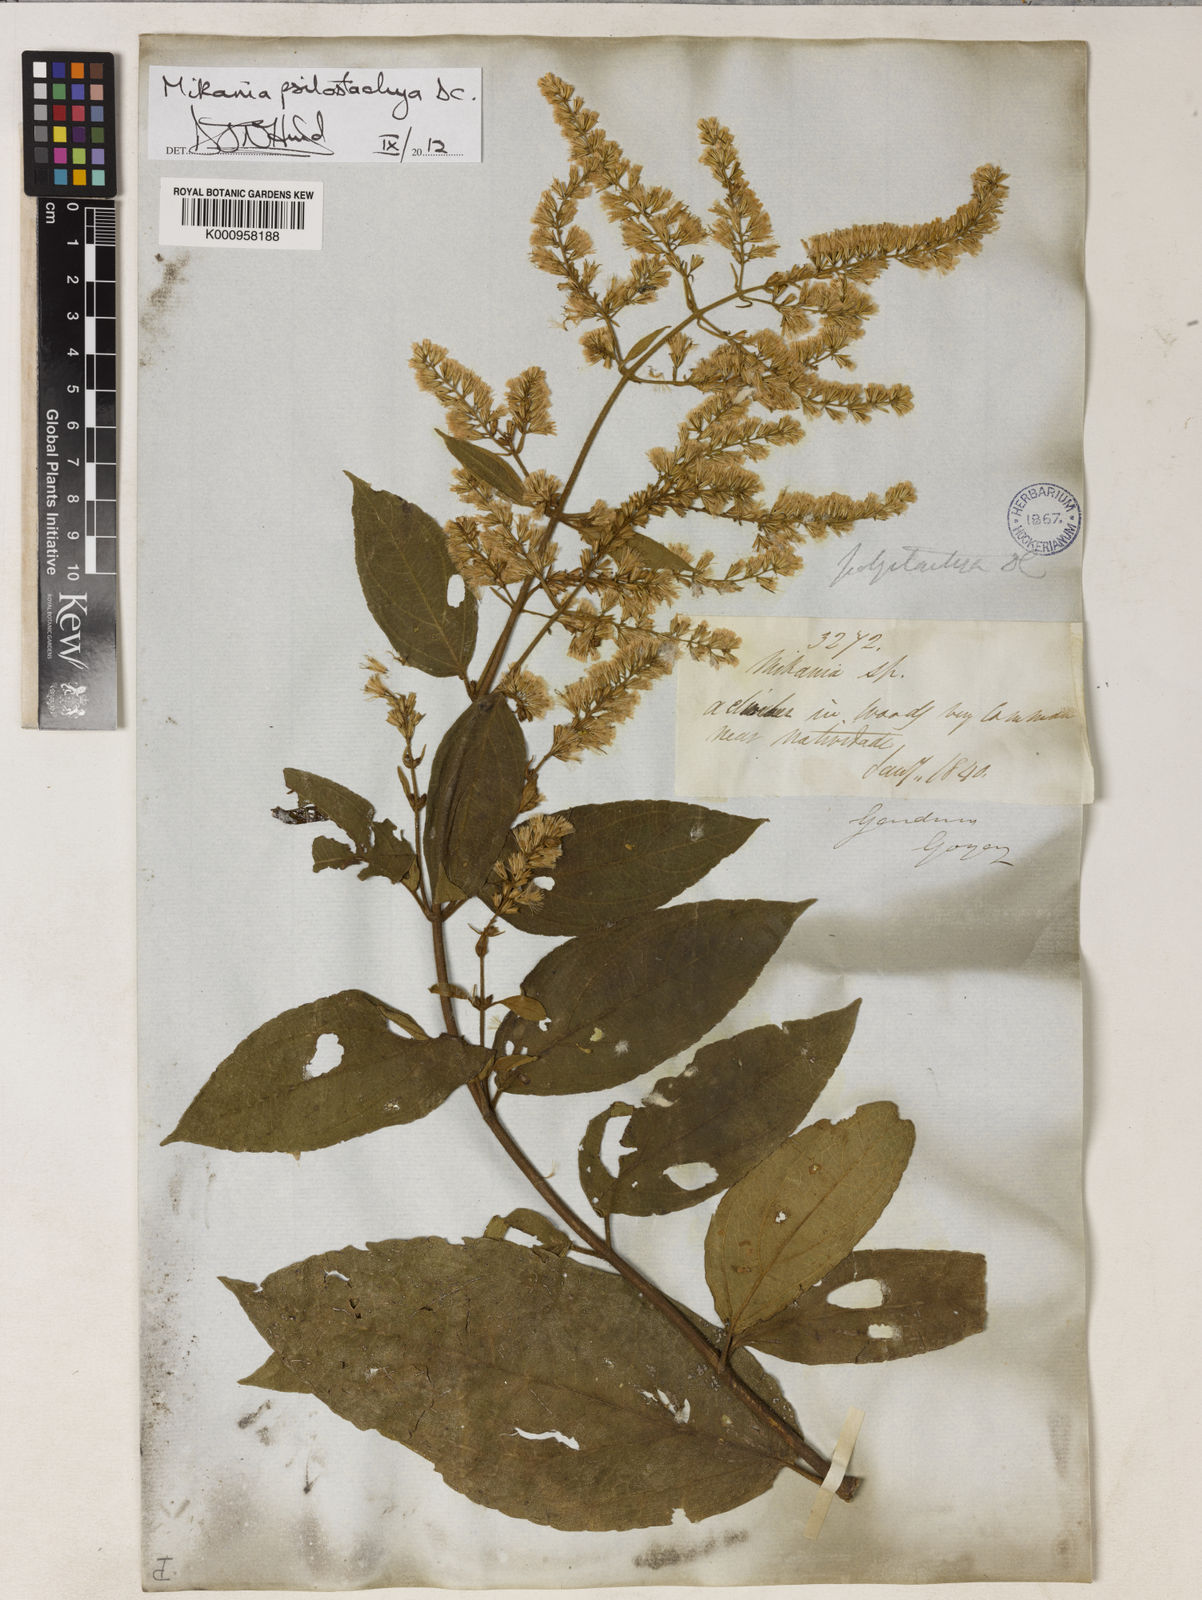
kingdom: Plantae
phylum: Tracheophyta
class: Magnoliopsida
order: Asterales
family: Asteraceae
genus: Mikania
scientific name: Mikania psilostachya
